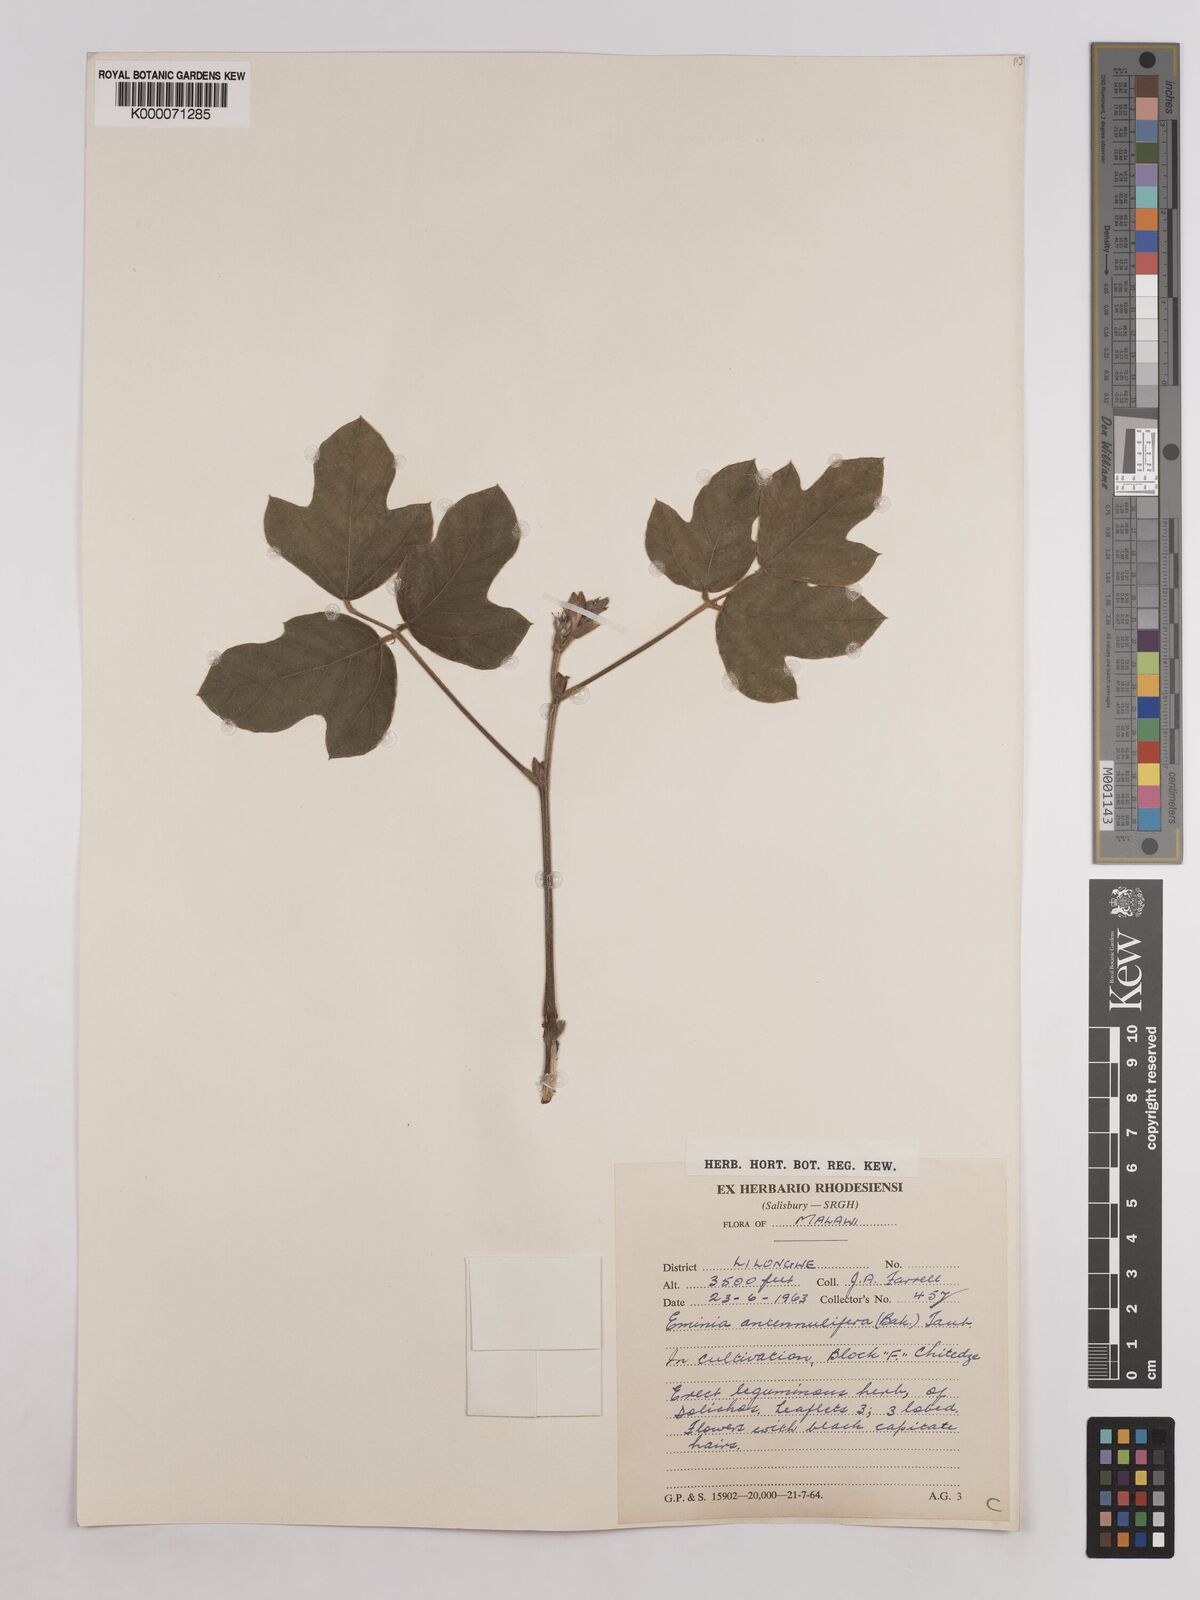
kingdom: Plantae
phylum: Tracheophyta
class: Magnoliopsida
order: Fabales
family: Fabaceae
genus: Eminia
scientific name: Eminia antennulifera
